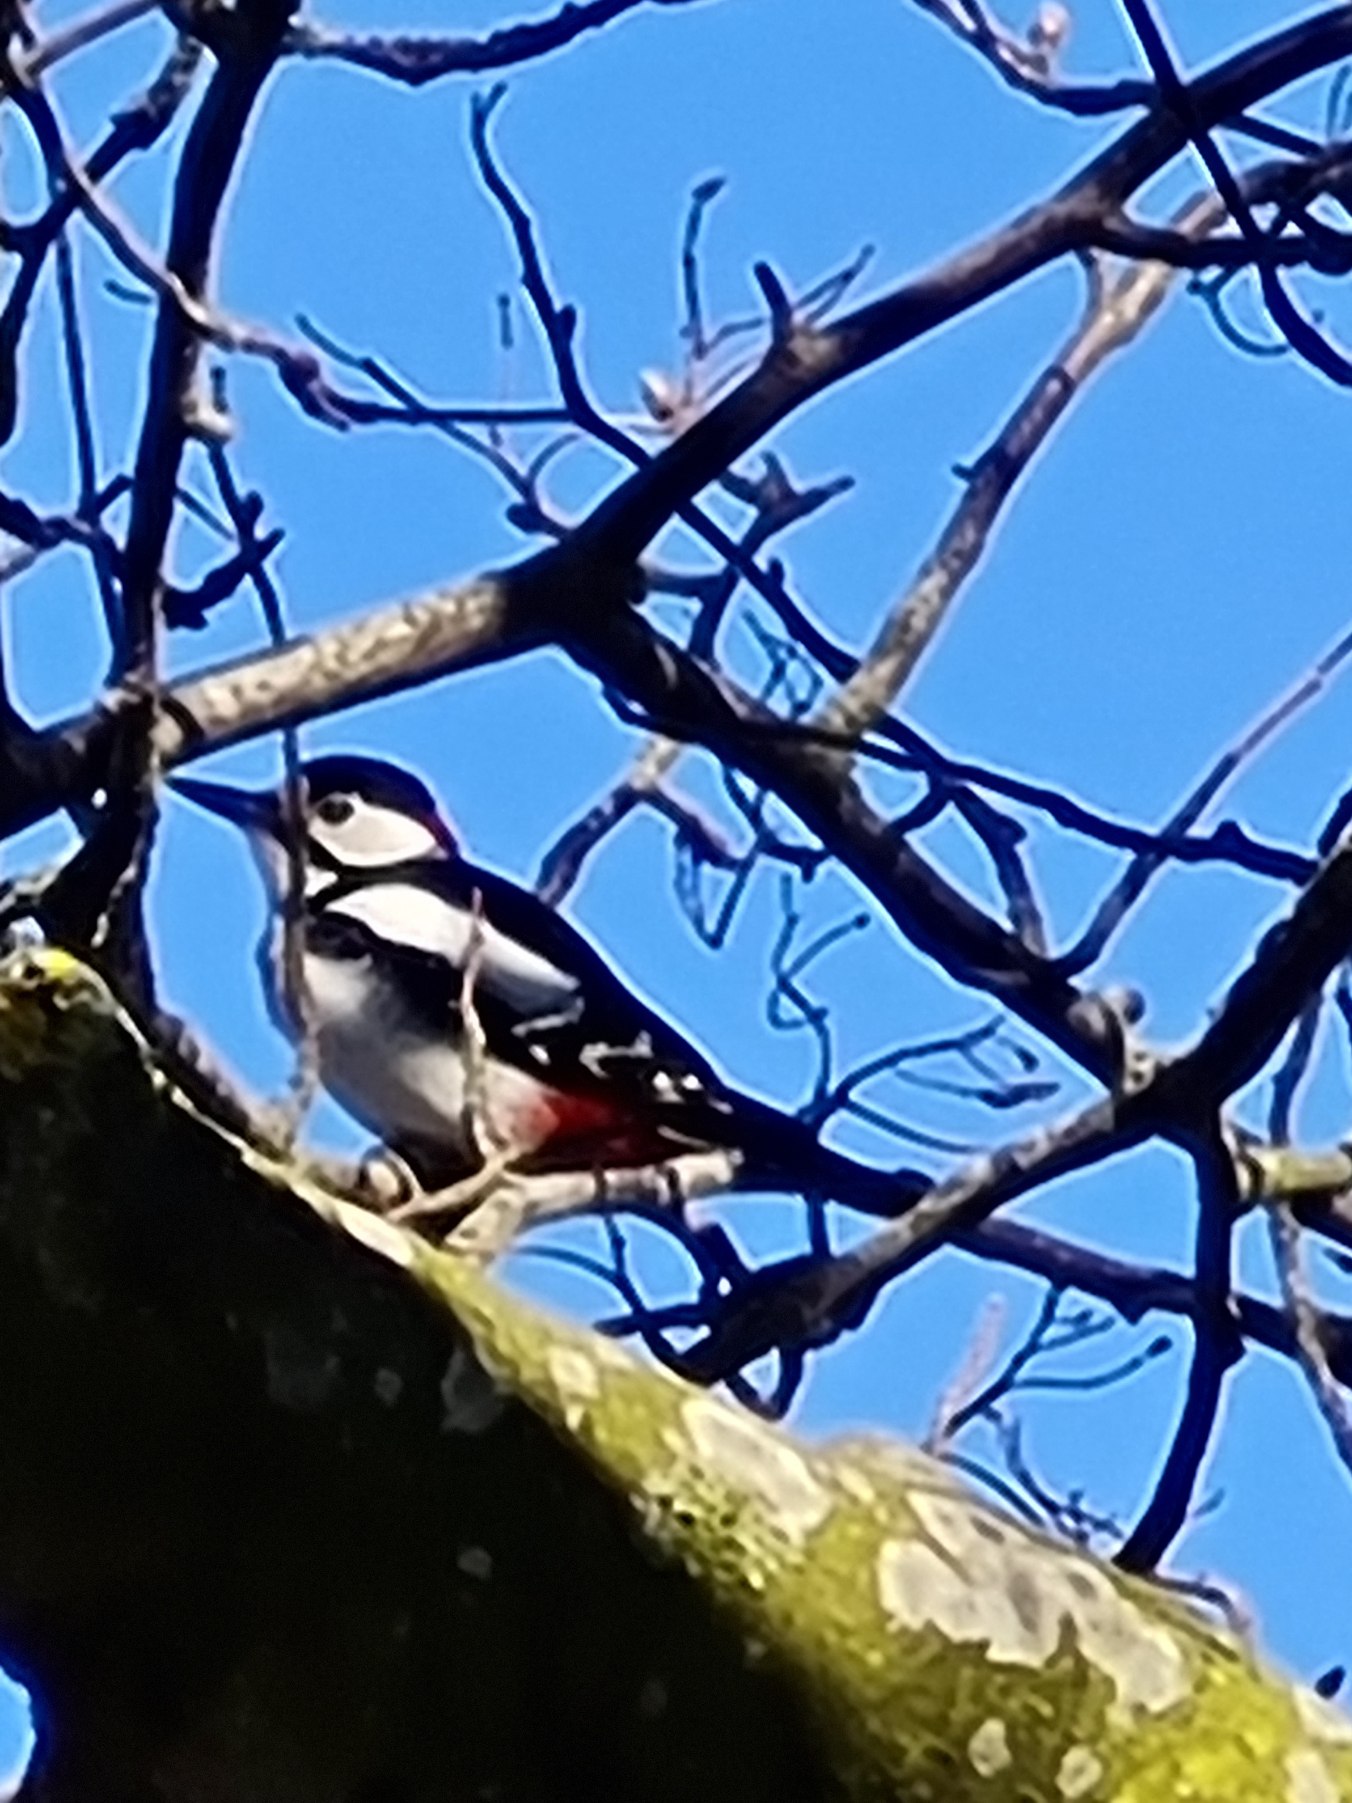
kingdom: Animalia
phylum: Chordata
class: Aves
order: Piciformes
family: Picidae
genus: Dendrocopos
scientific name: Dendrocopos major
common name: Stor flagspætte
